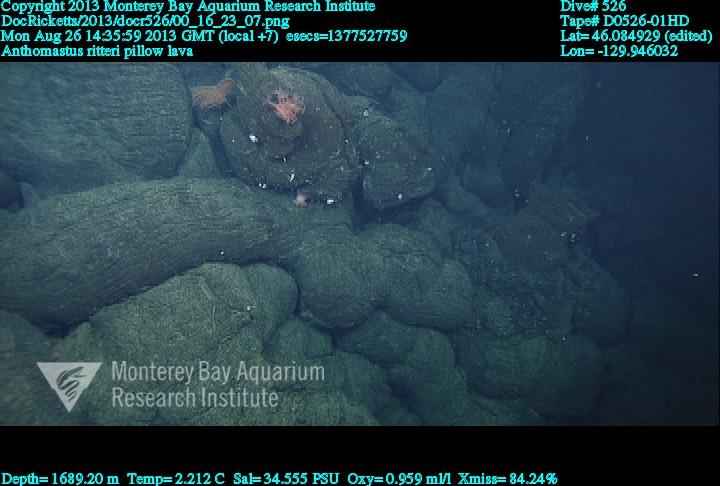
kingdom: Animalia
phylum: Cnidaria
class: Anthozoa
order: Scleralcyonacea
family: Coralliidae
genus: Heteropolypus
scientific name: Heteropolypus ritteri
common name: Ritter's soft coral
